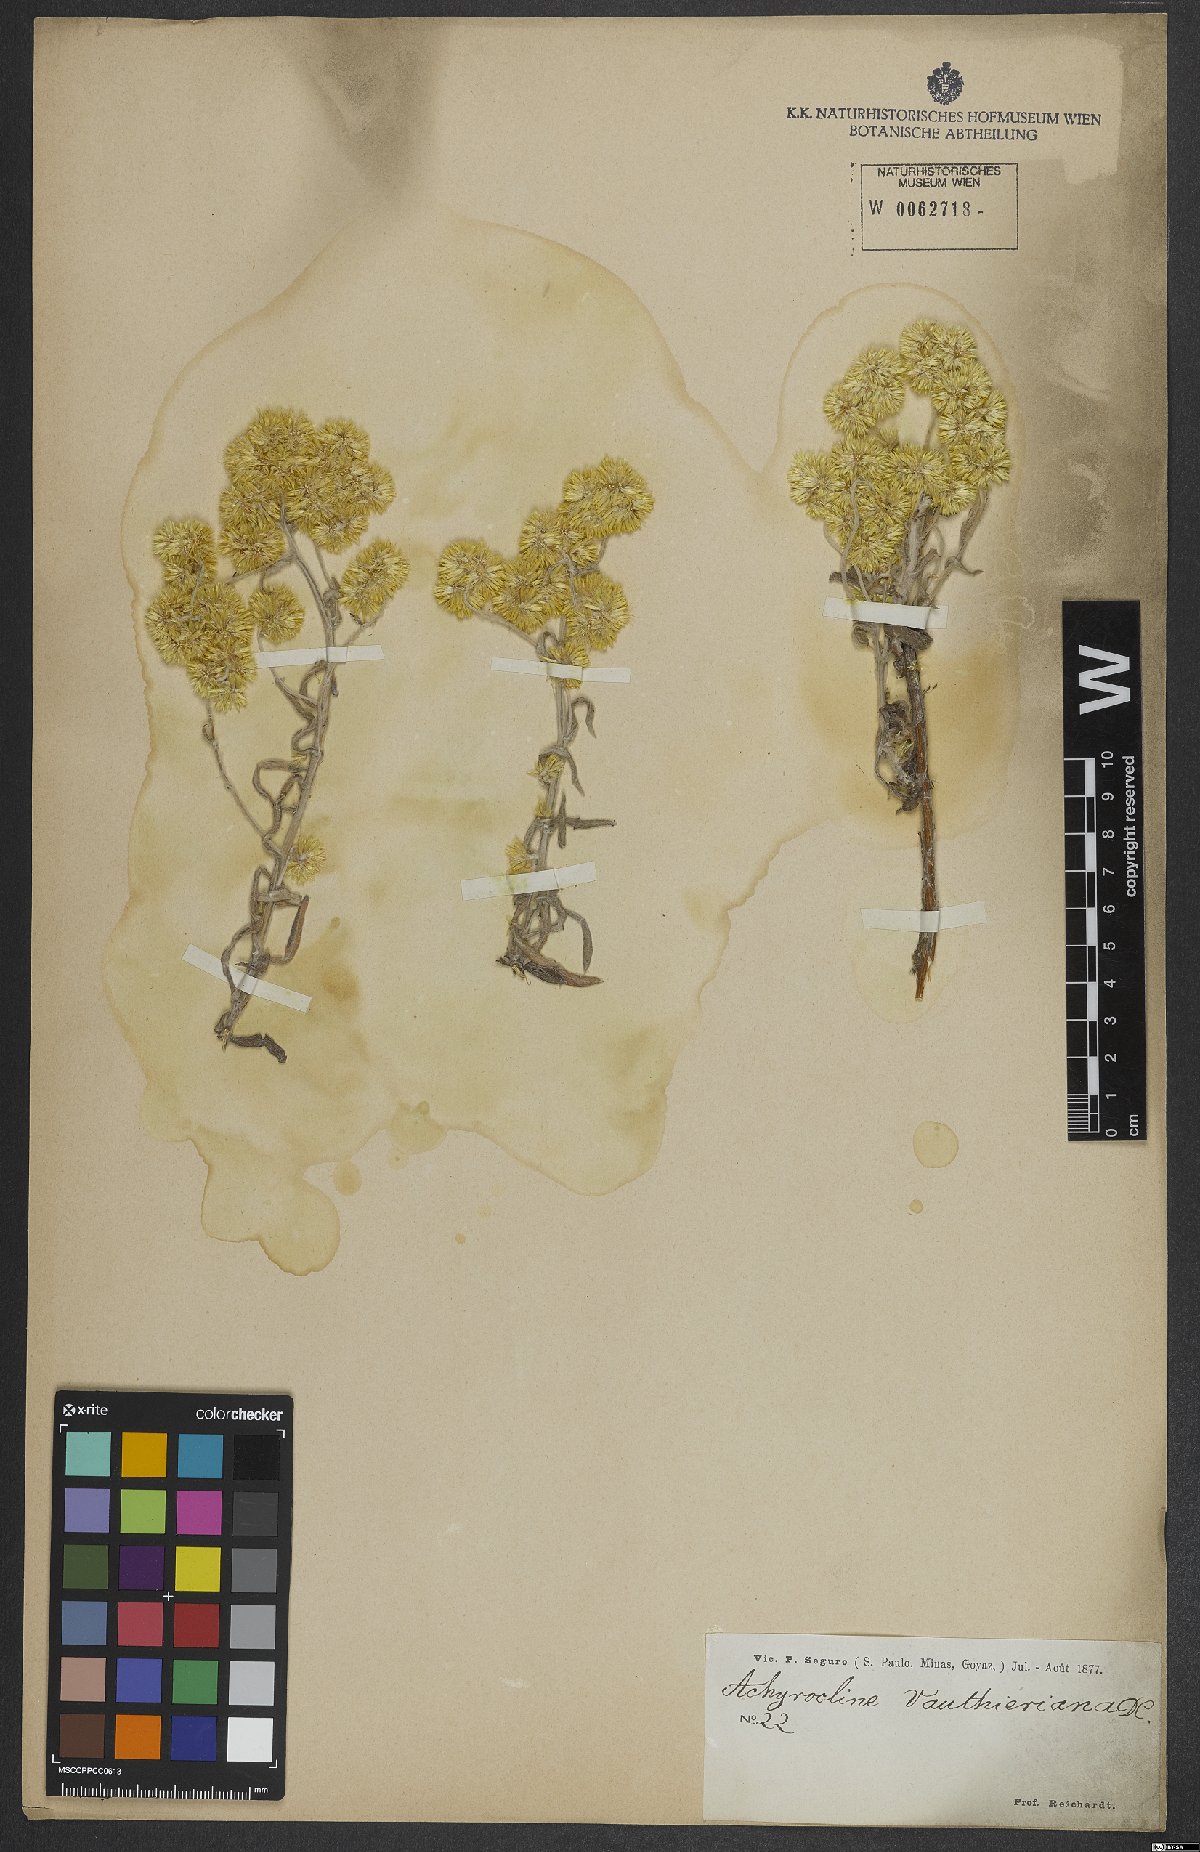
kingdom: Plantae
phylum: Tracheophyta
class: Magnoliopsida
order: Asterales
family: Asteraceae
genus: Achyrocline
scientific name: Achyrocline vauthieriana
